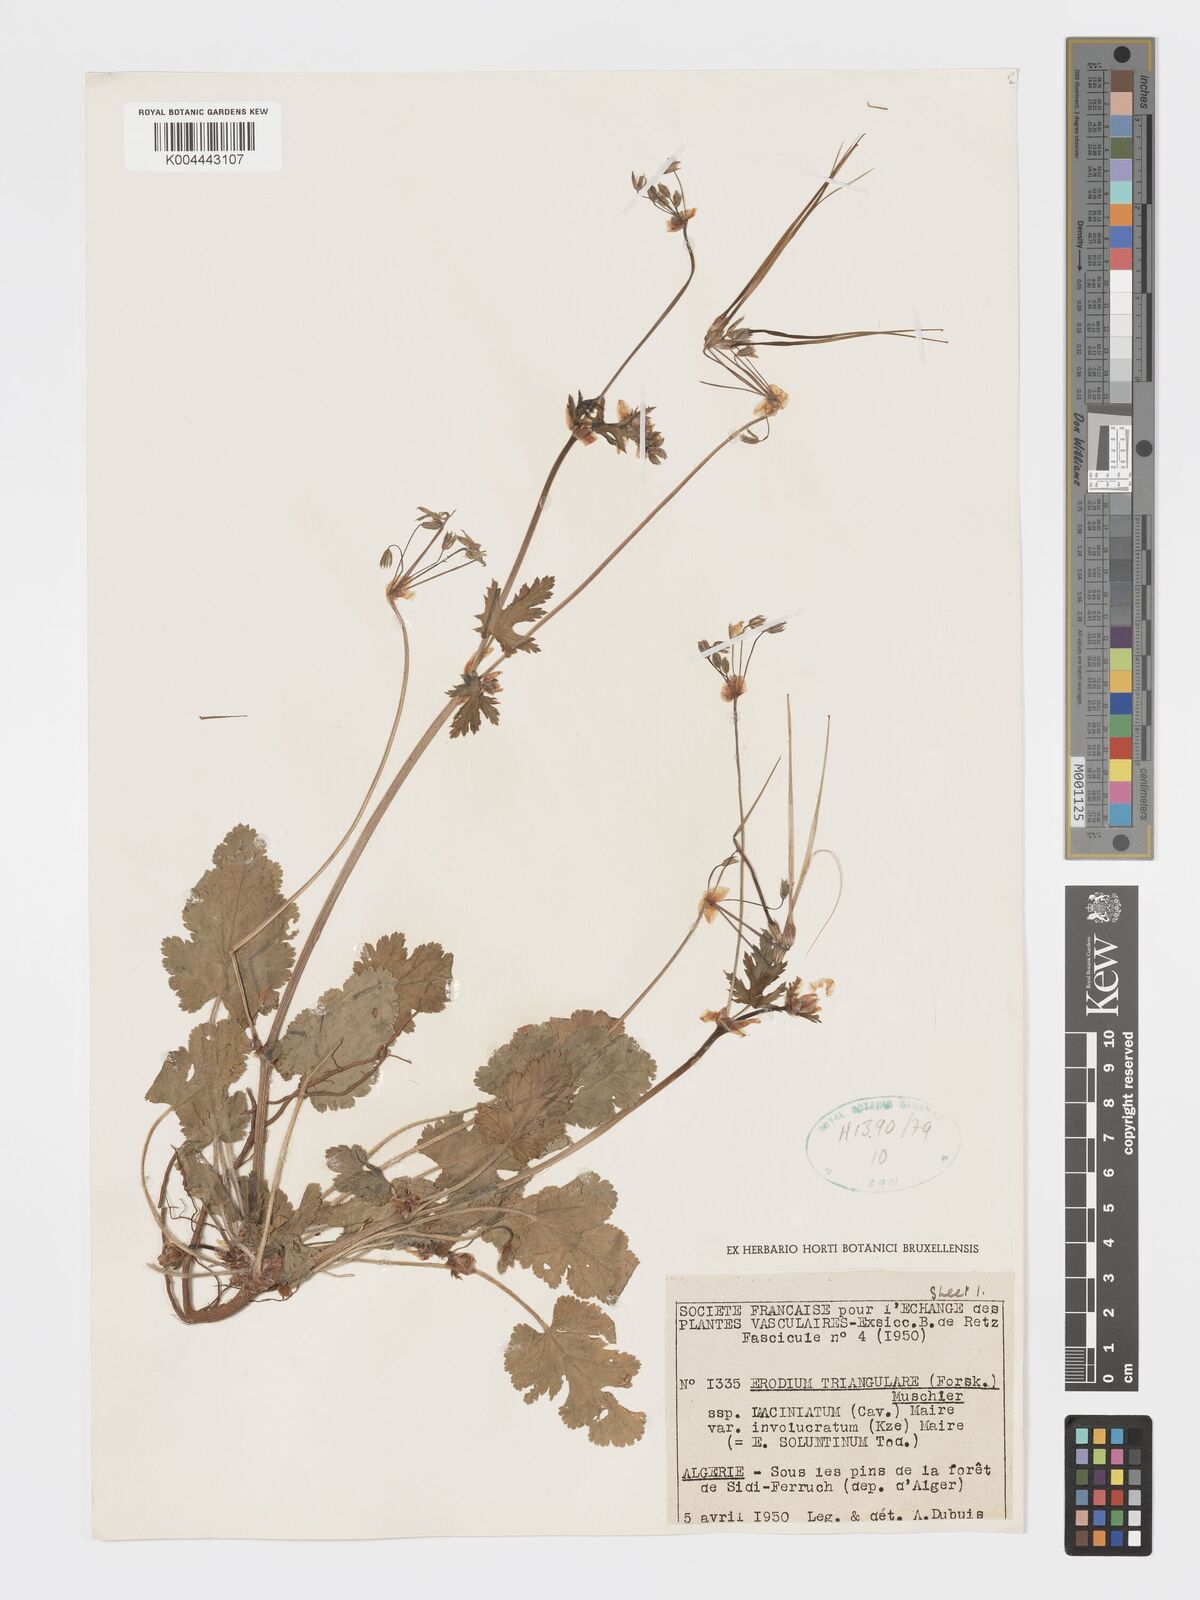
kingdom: Plantae
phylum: Tracheophyta
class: Magnoliopsida
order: Geraniales
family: Geraniaceae
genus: Erodium
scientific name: Erodium laciniatum
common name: Cutleaf stork's bill
